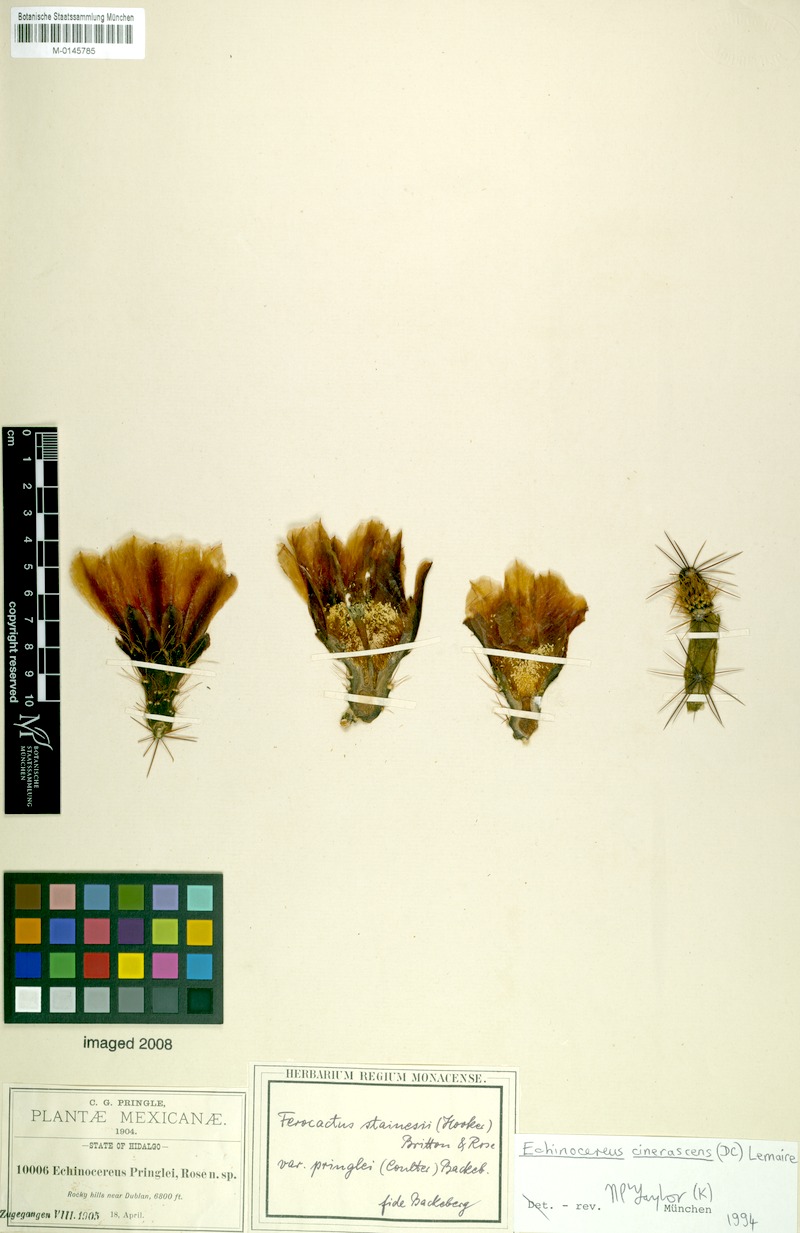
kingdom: Plantae
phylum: Tracheophyta
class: Magnoliopsida
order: Caryophyllales
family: Cactaceae
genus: Echinocereus
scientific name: Echinocereus cinerascens
